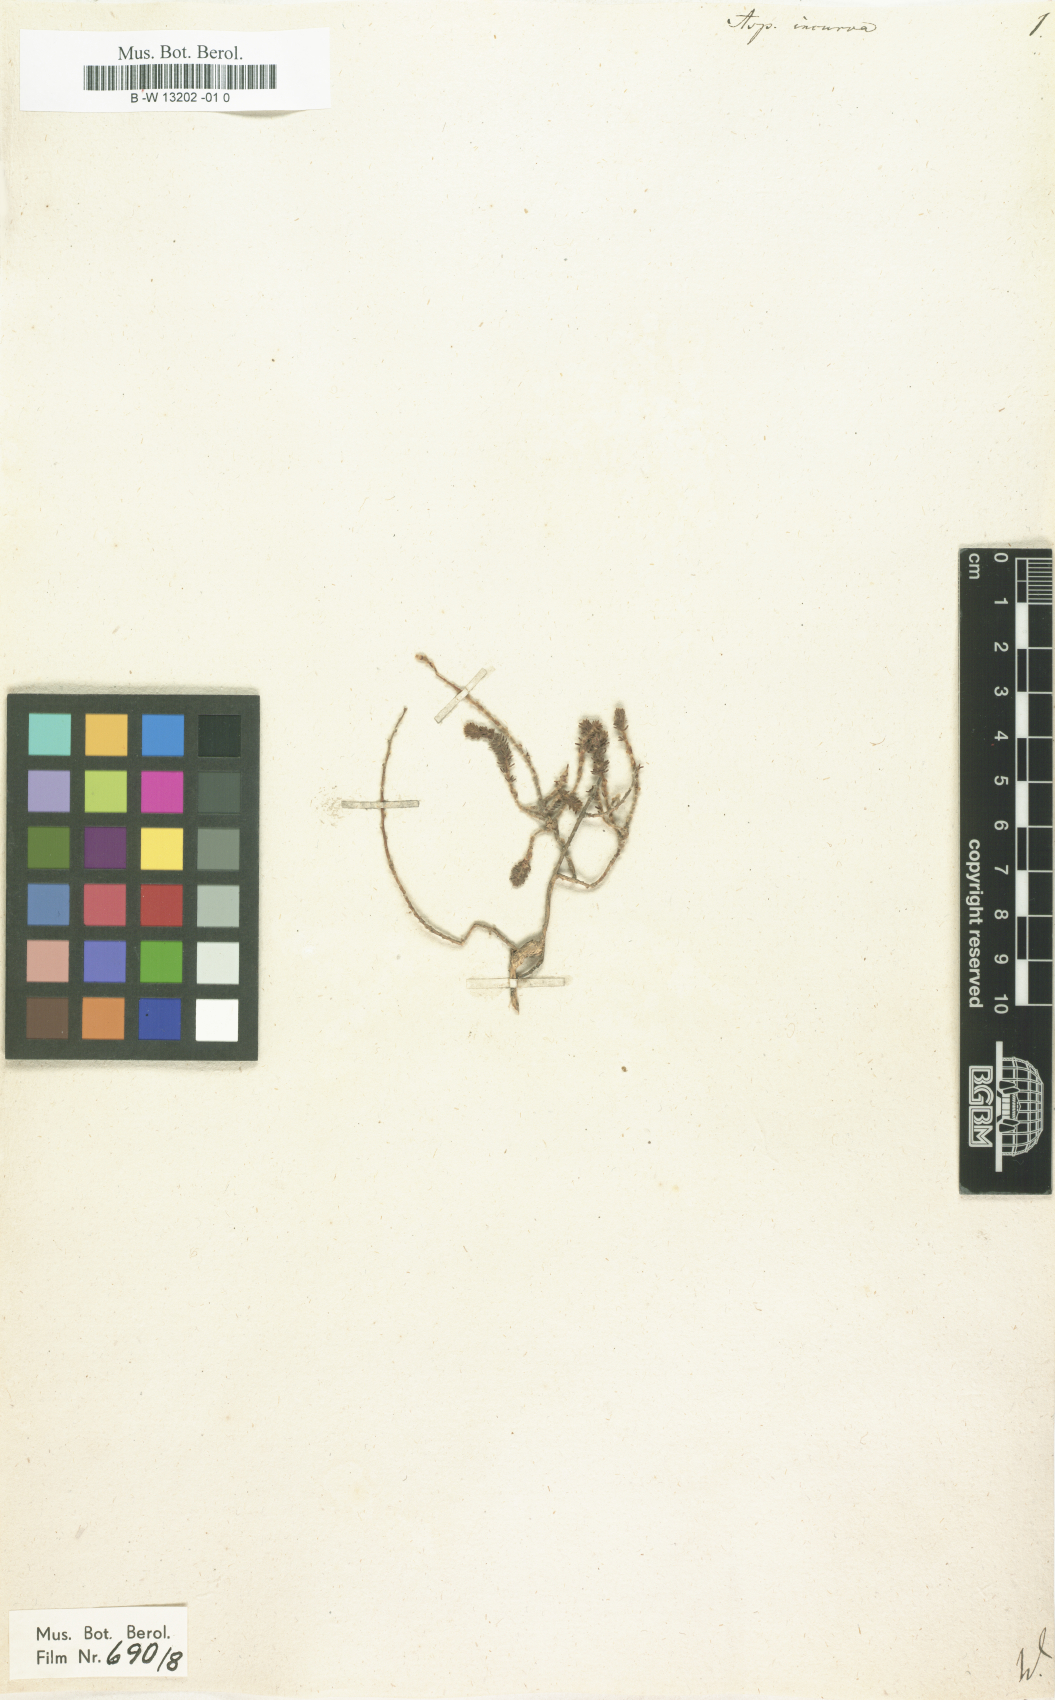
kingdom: Plantae
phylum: Tracheophyta
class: Magnoliopsida
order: Fabales
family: Fabaceae
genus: Aspalathus
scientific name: Aspalathus incurva
